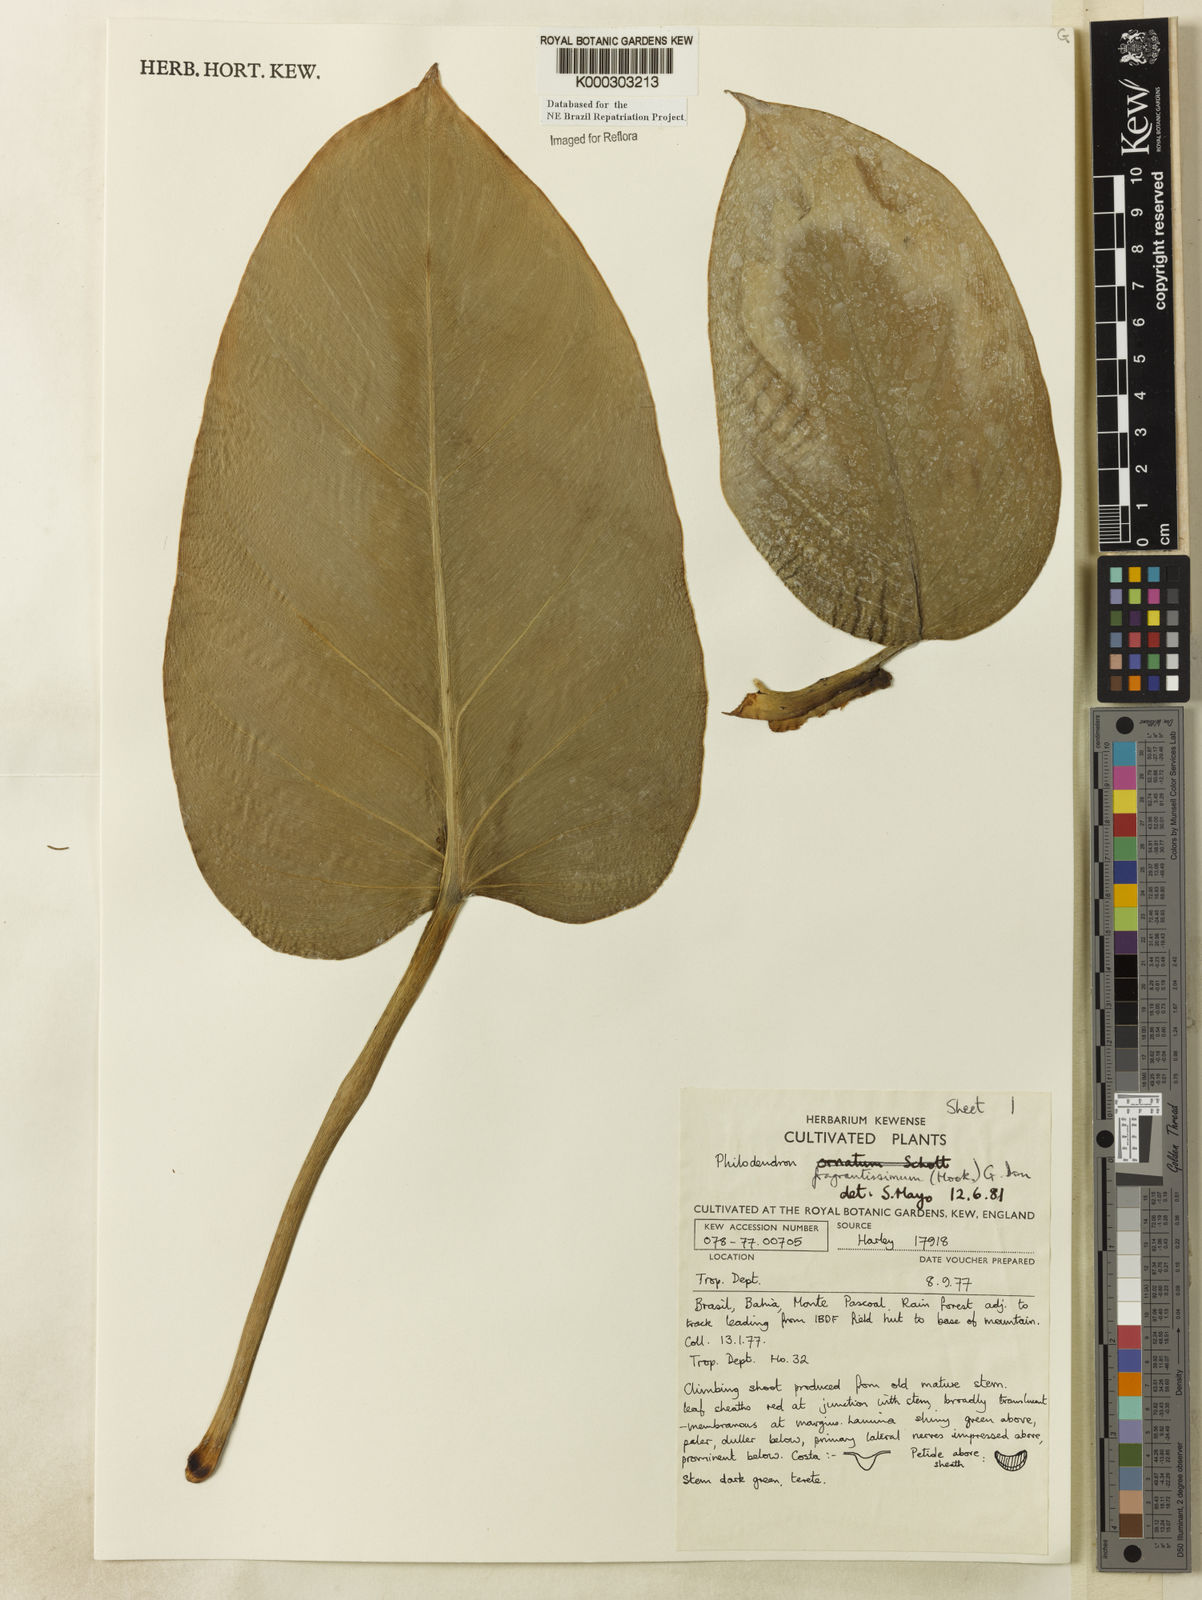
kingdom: Plantae
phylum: Tracheophyta
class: Liliopsida
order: Alismatales
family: Araceae
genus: Philodendron
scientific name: Philodendron fragrantissimum
